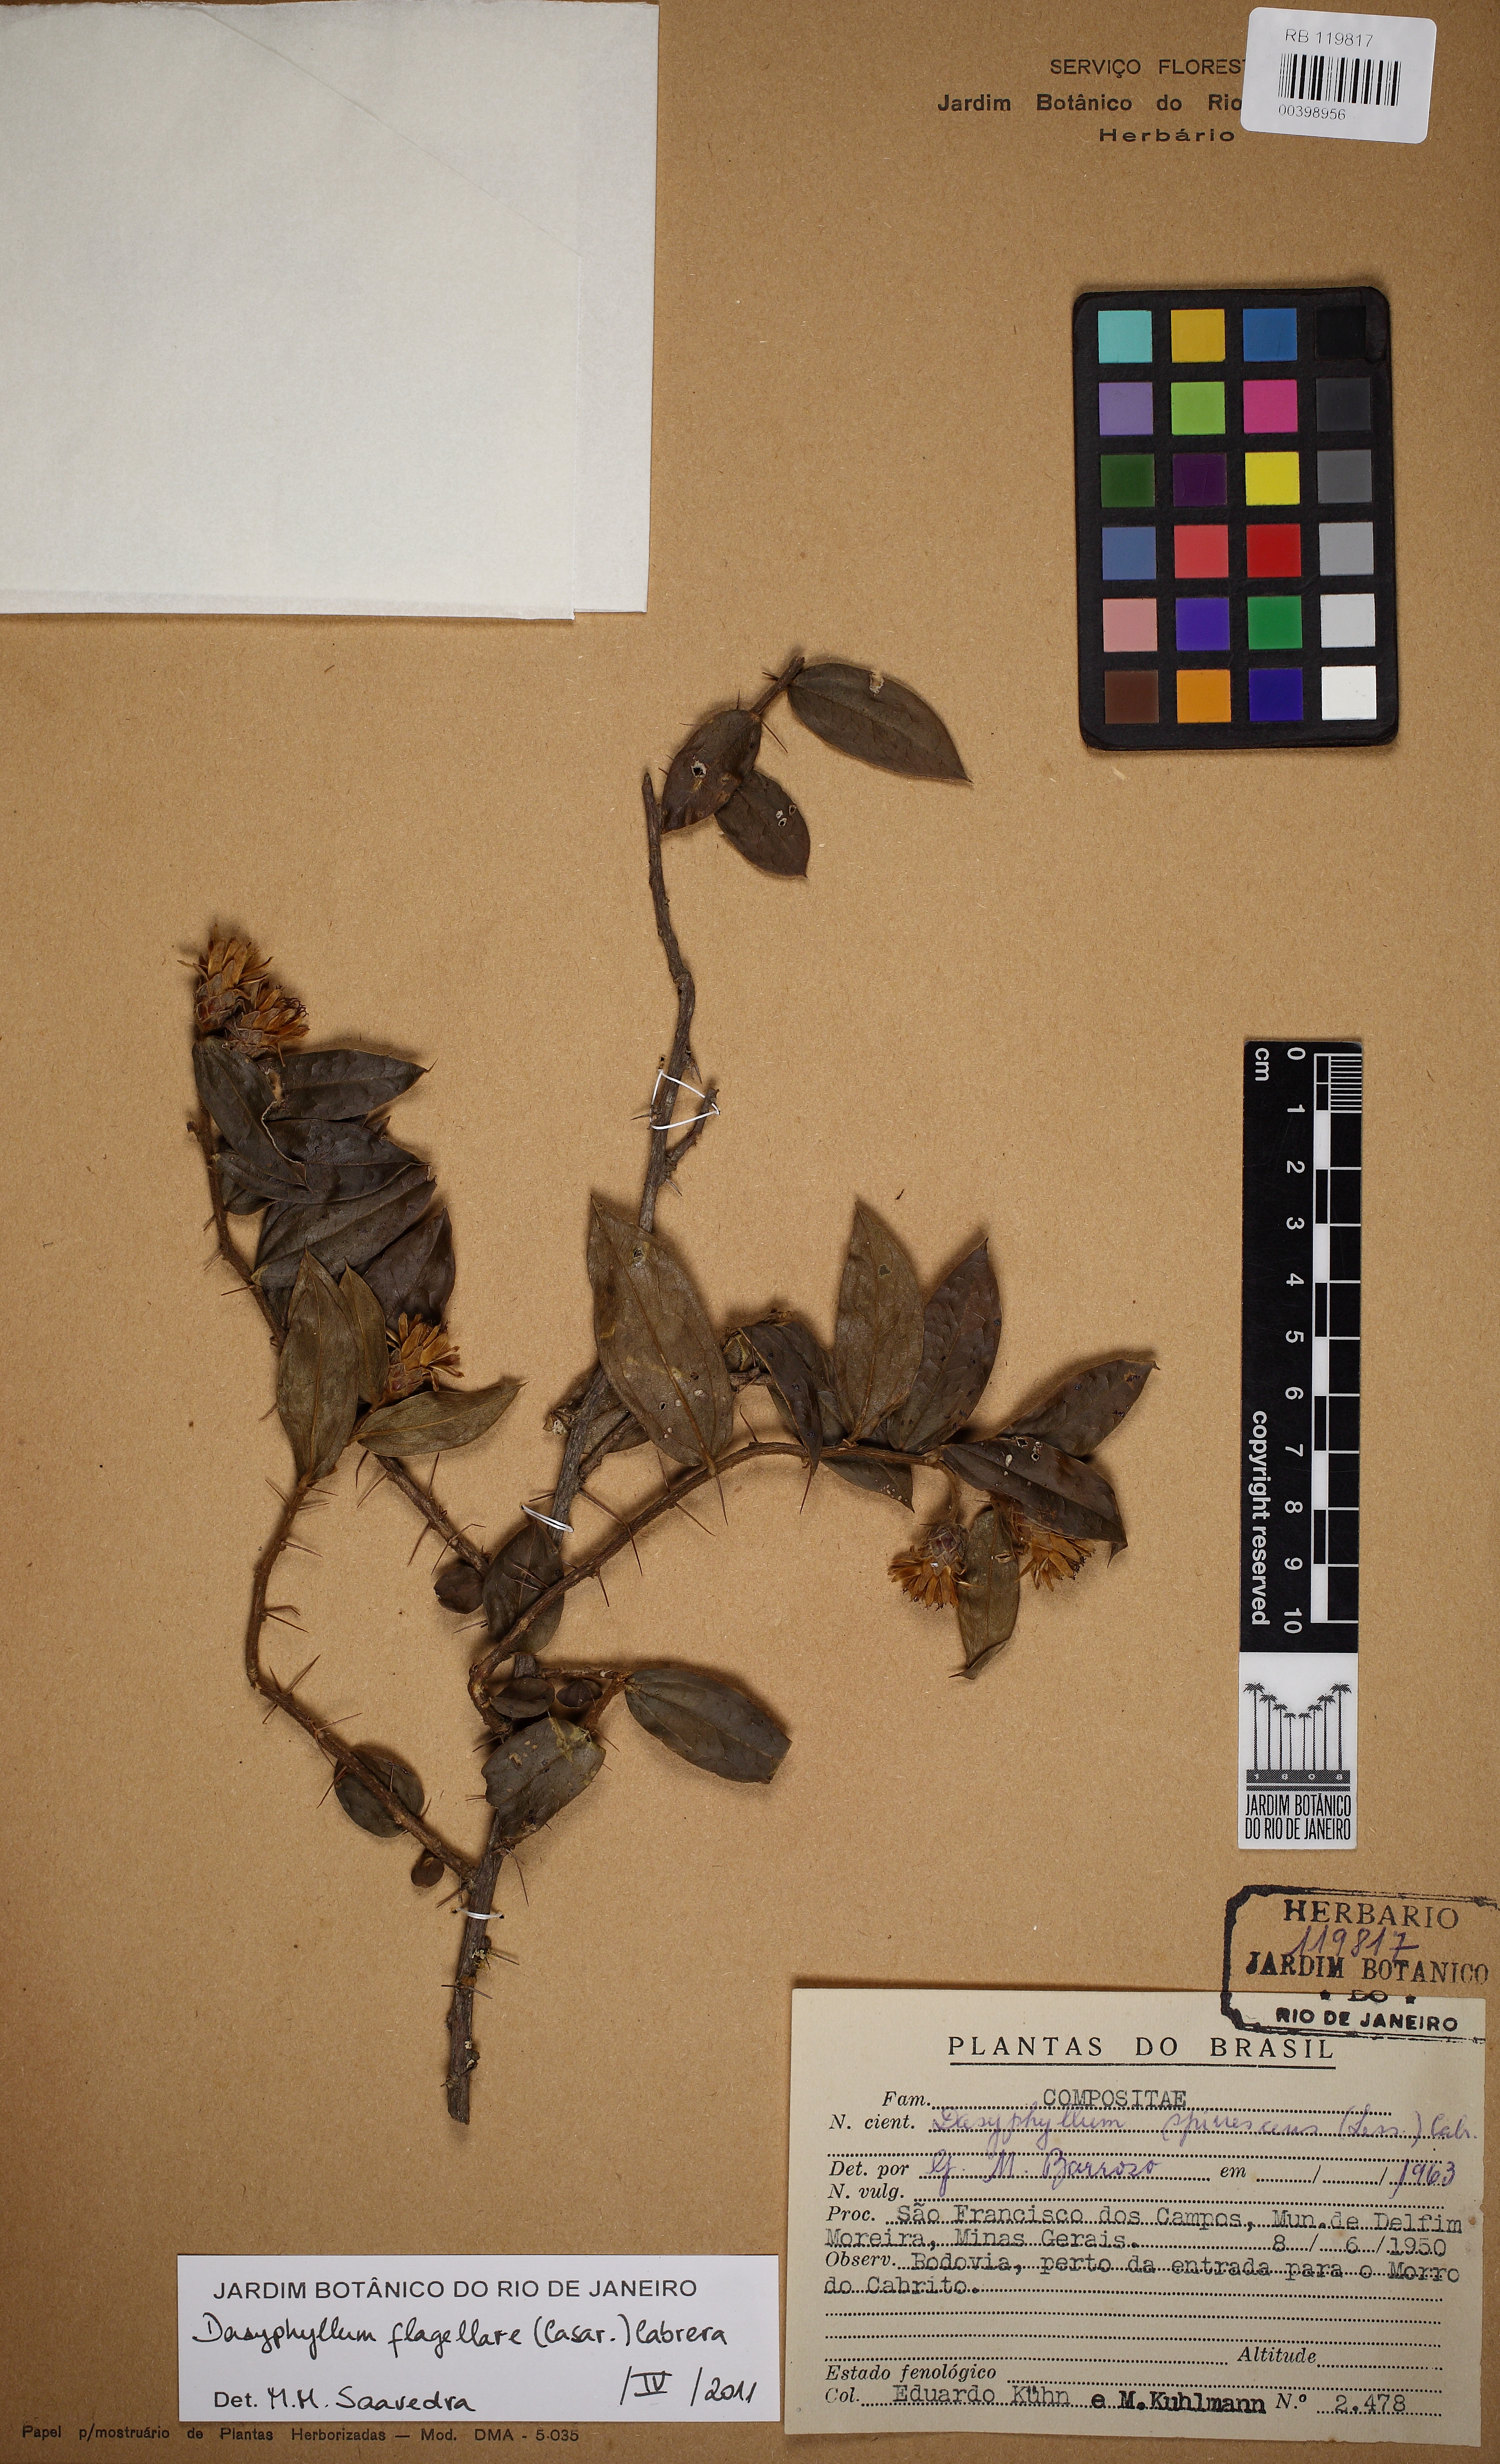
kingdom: Plantae
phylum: Tracheophyta
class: Magnoliopsida
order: Asterales
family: Asteraceae
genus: Dasyphyllum
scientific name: Dasyphyllum flagellare
